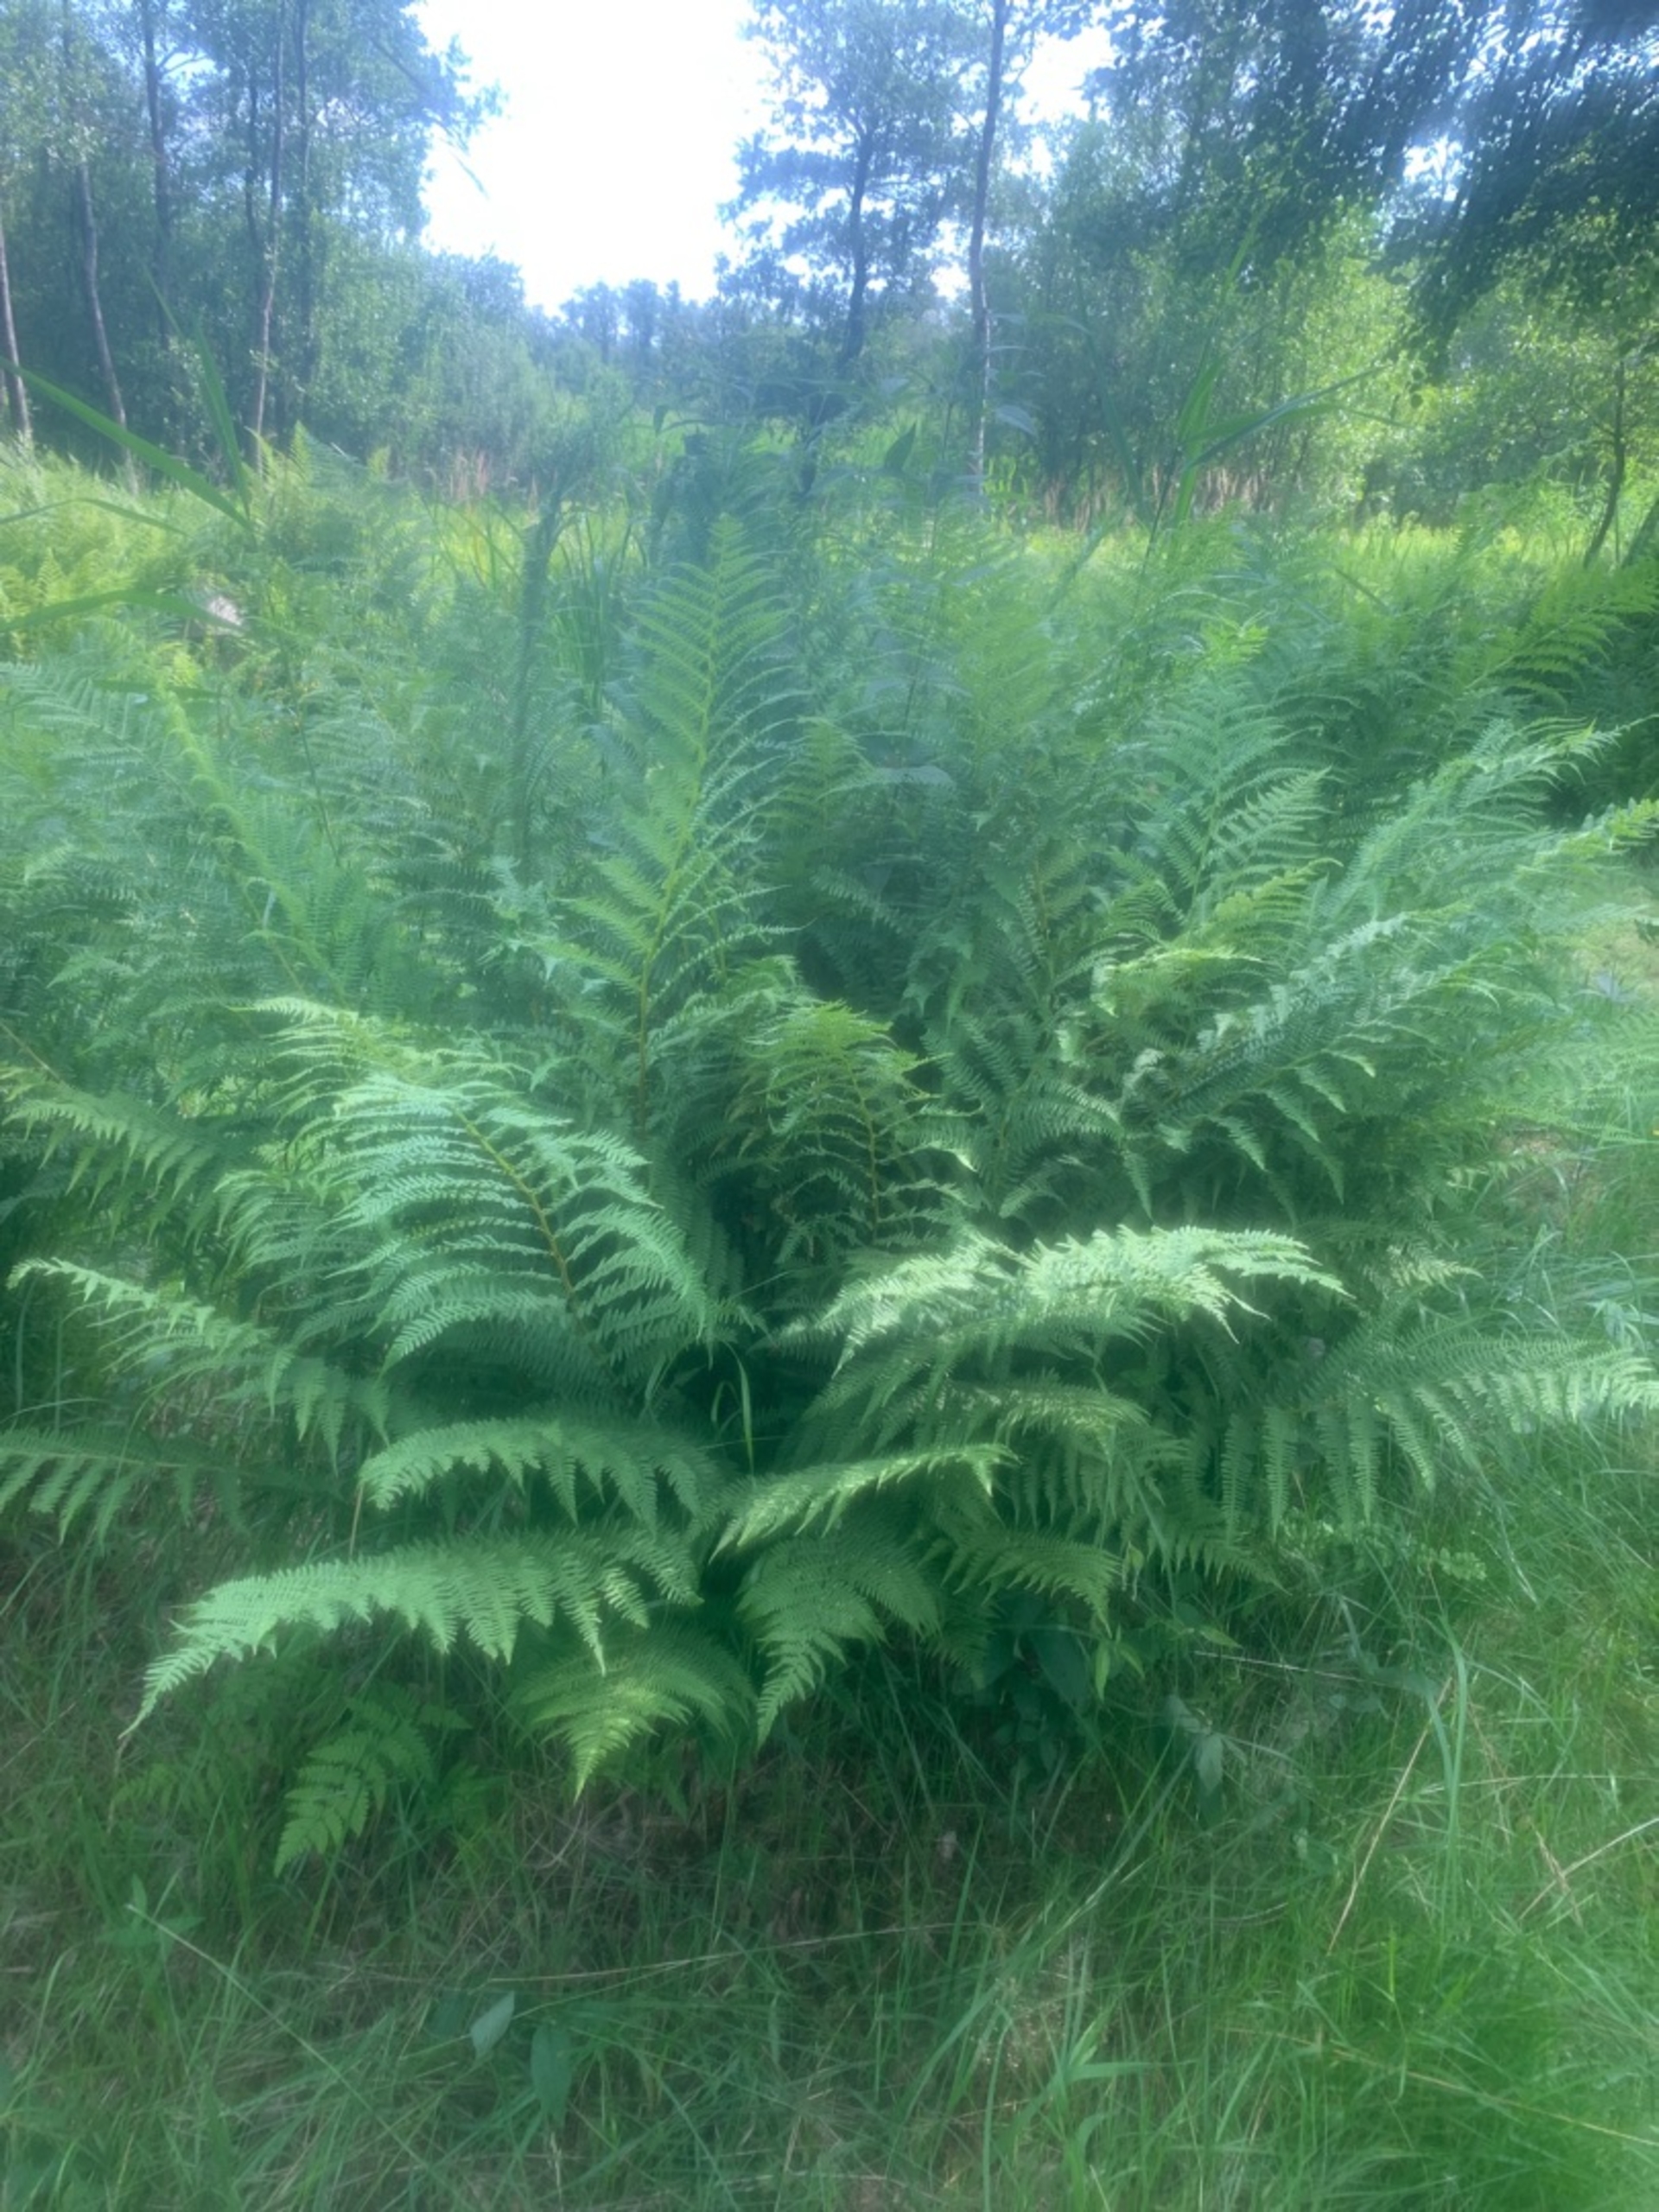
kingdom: Plantae
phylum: Tracheophyta
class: Polypodiopsida
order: Polypodiales
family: Athyriaceae
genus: Athyrium
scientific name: Athyrium filix-femina
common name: Fjerbregne
